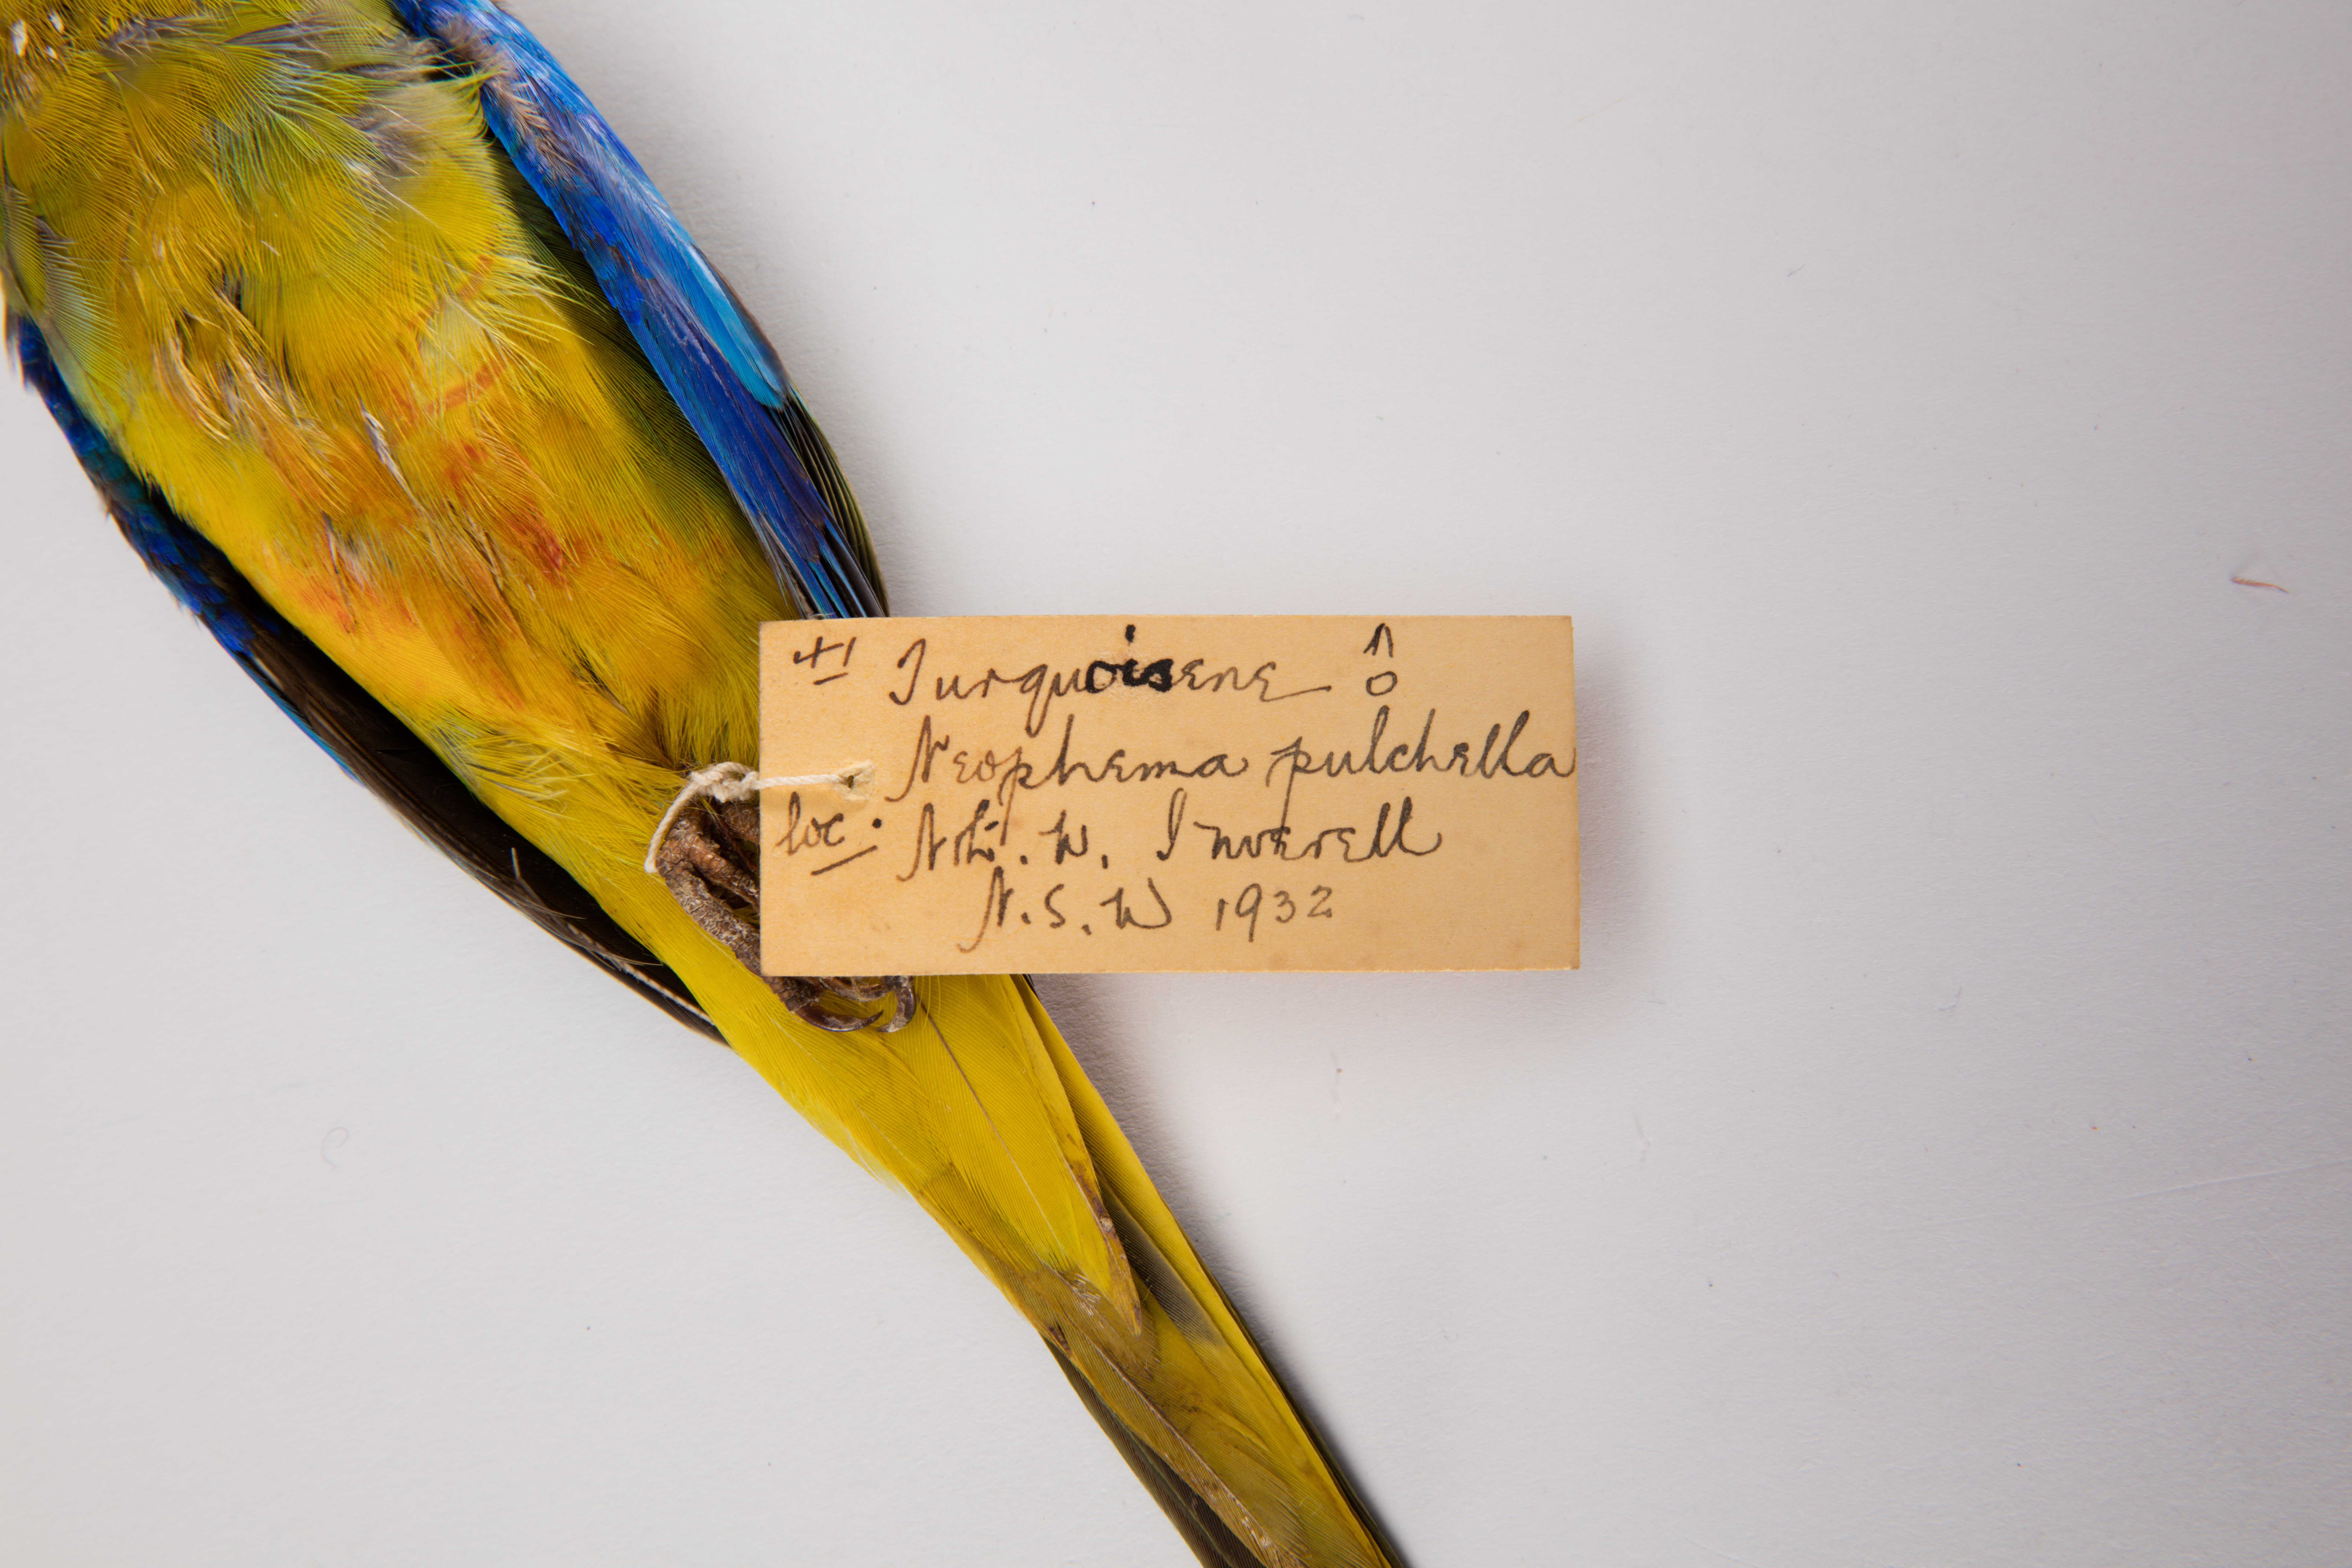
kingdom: Animalia
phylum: Chordata
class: Aves
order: Psittaciformes
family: Psittacidae
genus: Neophema
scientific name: Neophema pulchella
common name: Turquoise parrot
